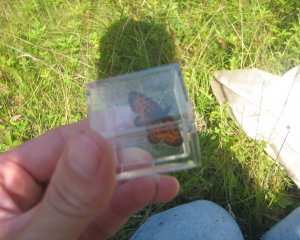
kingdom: Animalia
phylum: Arthropoda
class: Insecta
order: Lepidoptera
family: Nymphalidae
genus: Boloria
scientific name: Boloria selene
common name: Silver-bordered Fritillary
